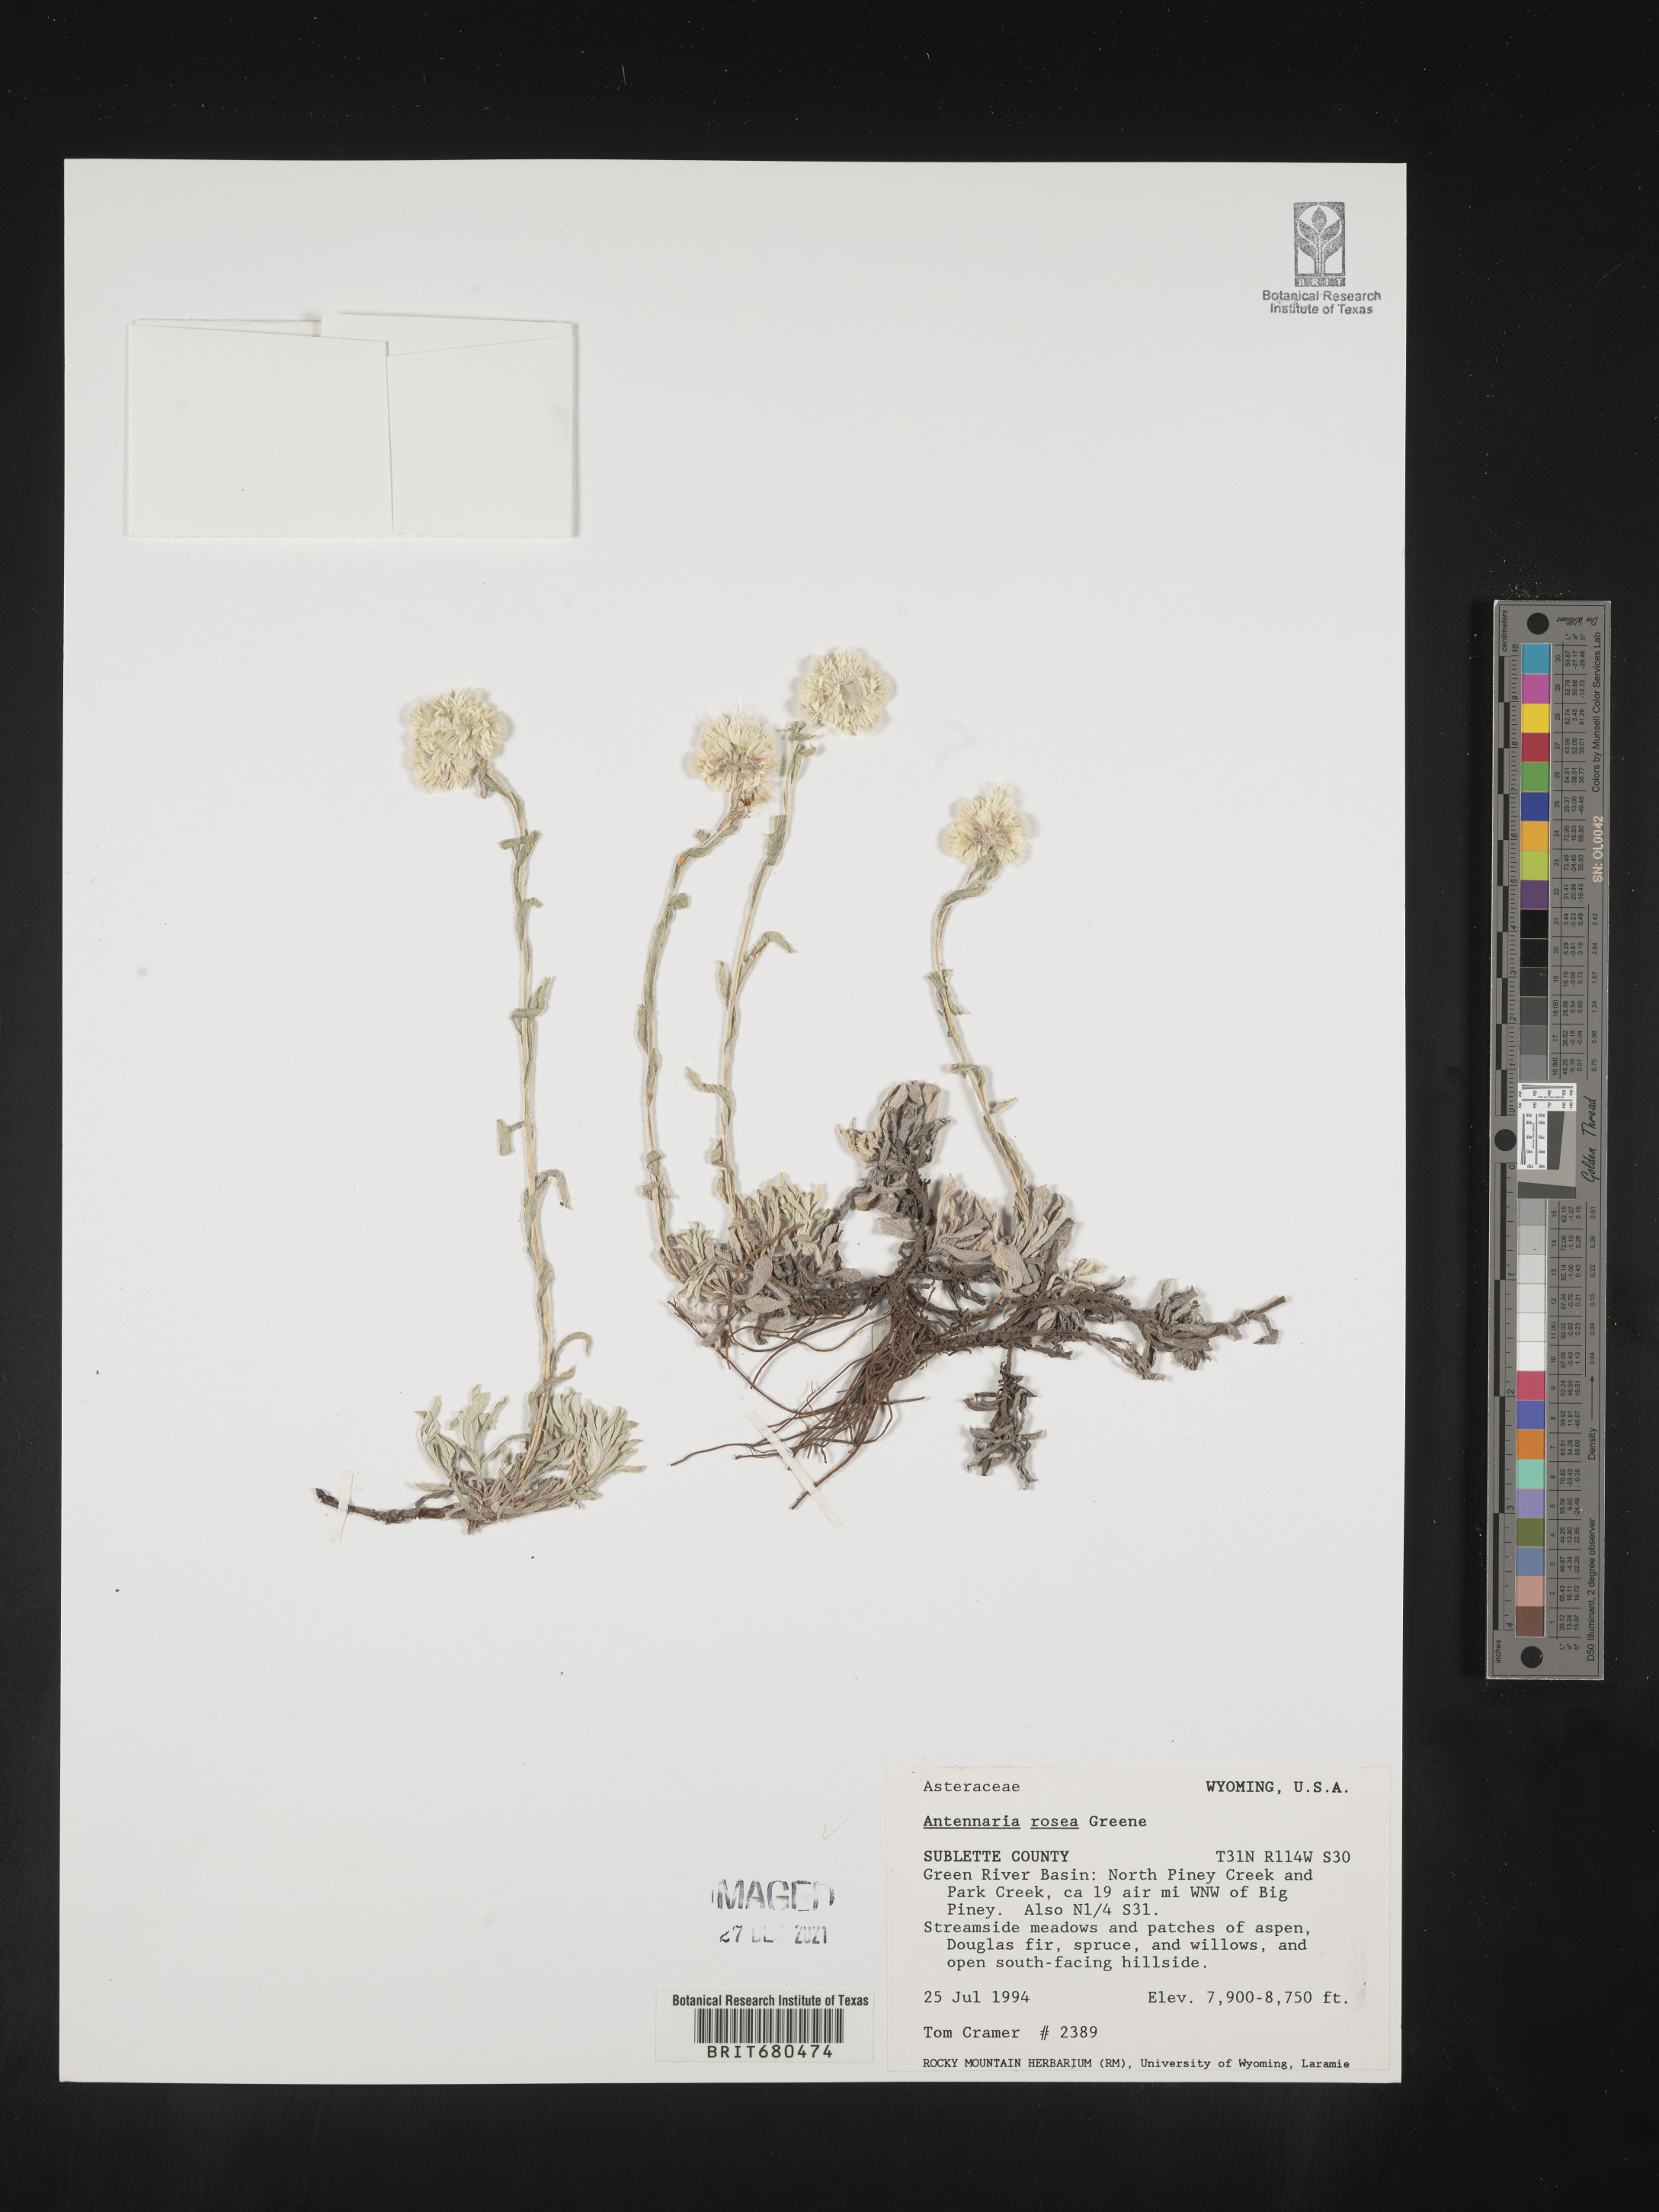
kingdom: Plantae
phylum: Tracheophyta
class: Magnoliopsida
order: Asterales
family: Asteraceae
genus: Antennaria
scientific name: Antennaria rosea
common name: Rosy pussytoes
